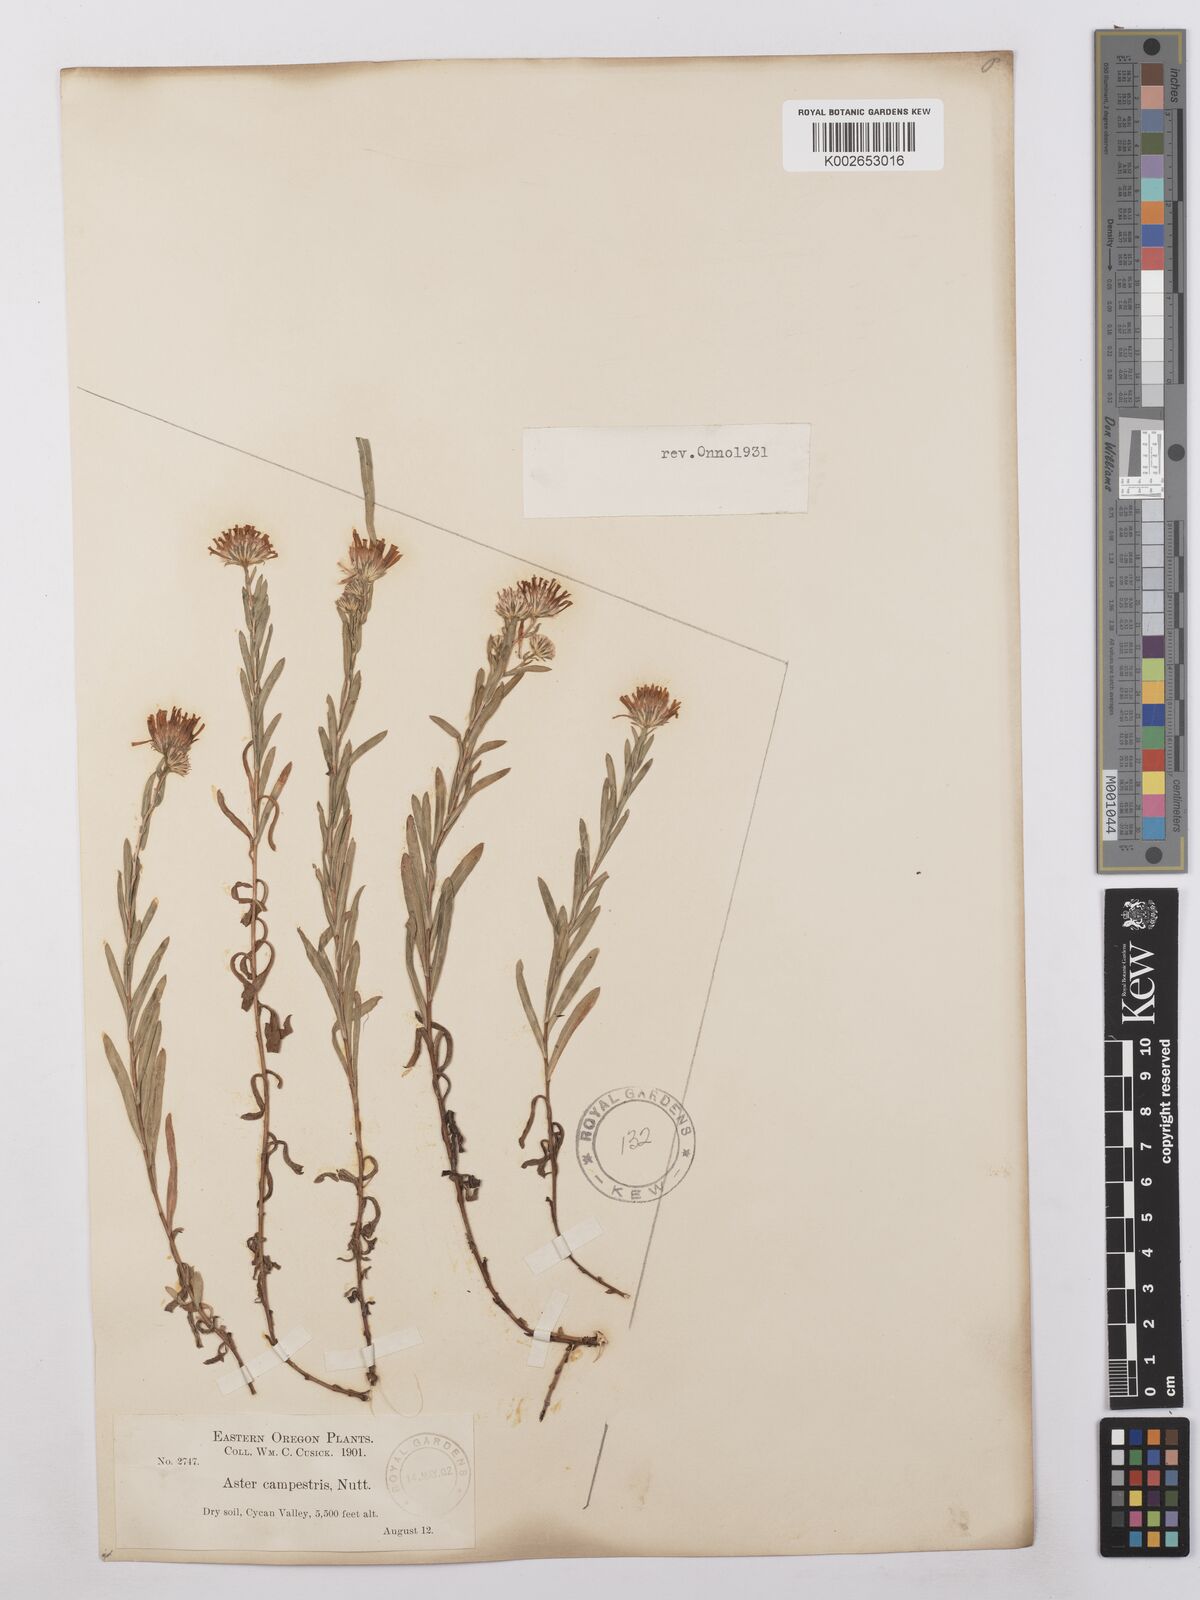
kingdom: Plantae
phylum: Tracheophyta
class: Magnoliopsida
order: Asterales
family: Asteraceae
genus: Symphyotrichum
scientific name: Symphyotrichum campestre
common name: Meadow aster
